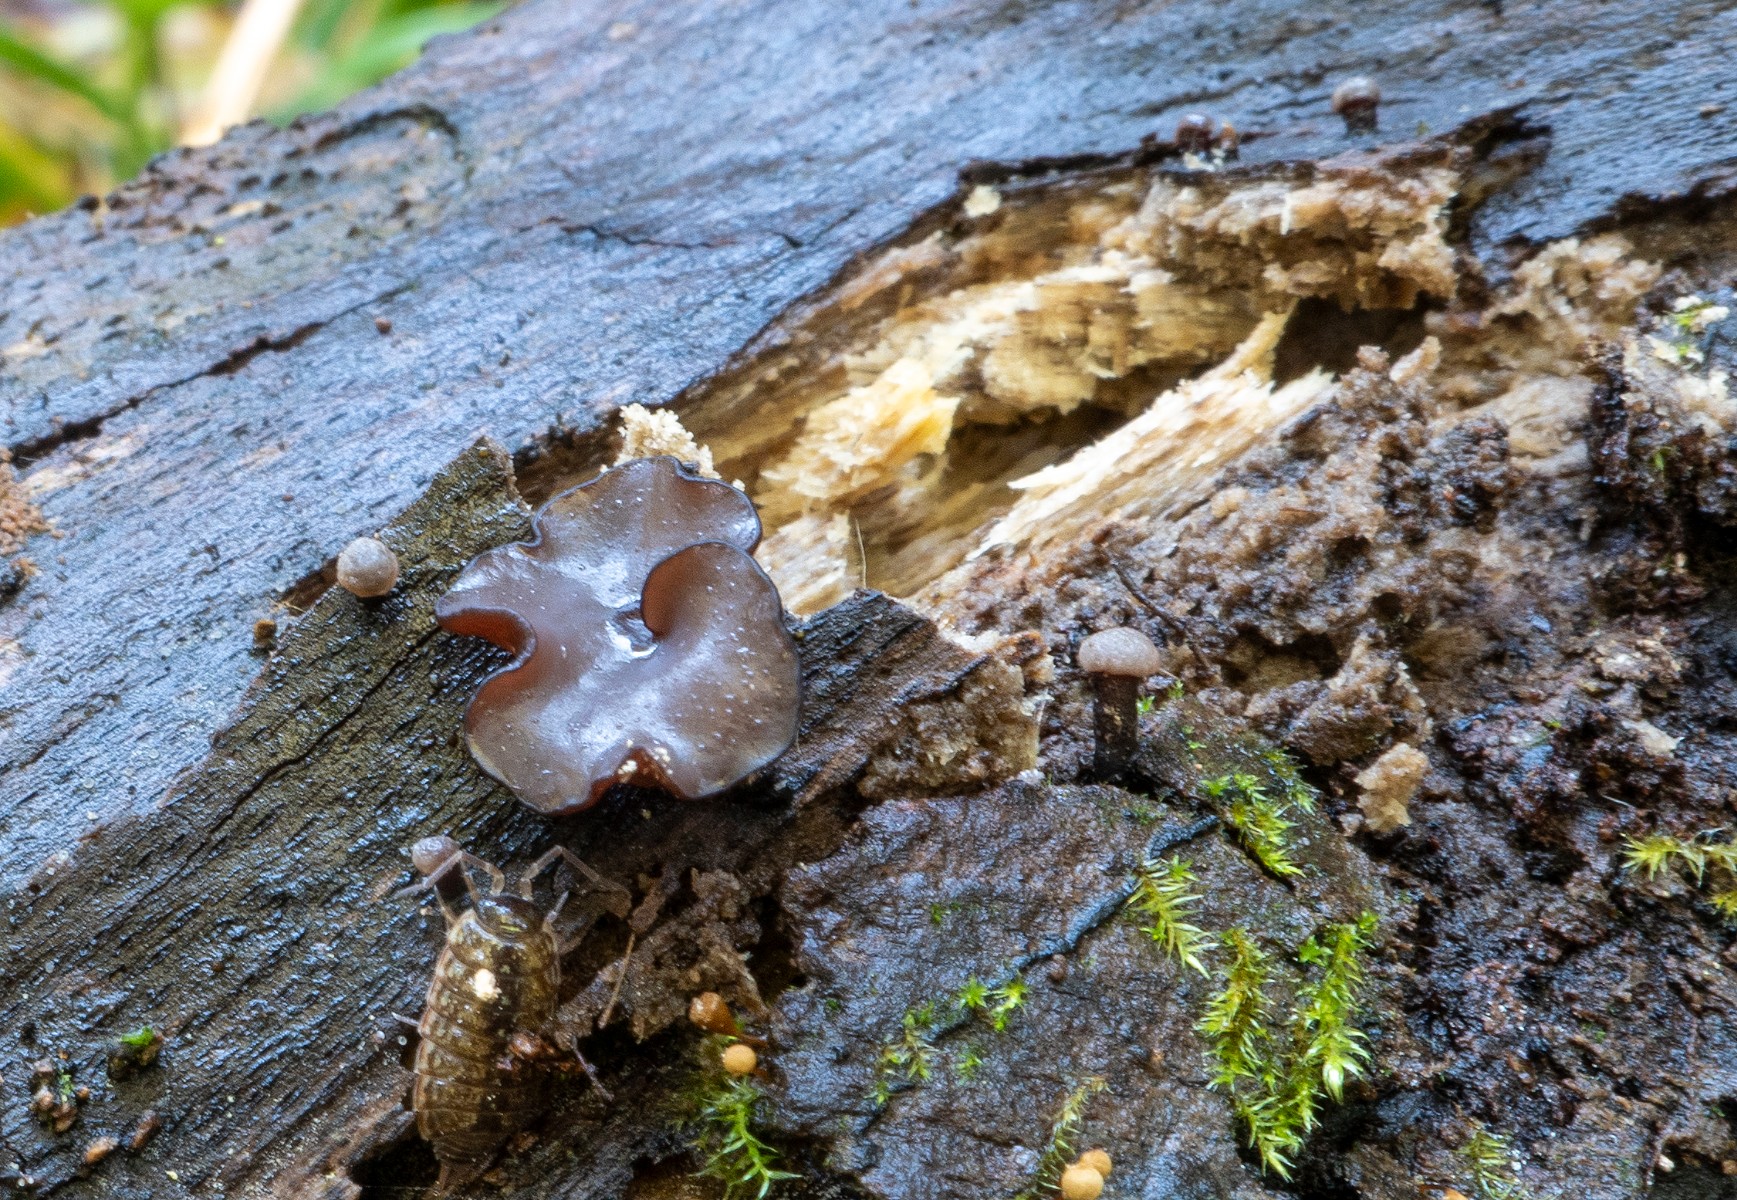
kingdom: Fungi
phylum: Ascomycota
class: Leotiomycetes
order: Helotiales
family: Gelatinodiscaceae
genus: Ascocoryne
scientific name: Ascocoryne albida
